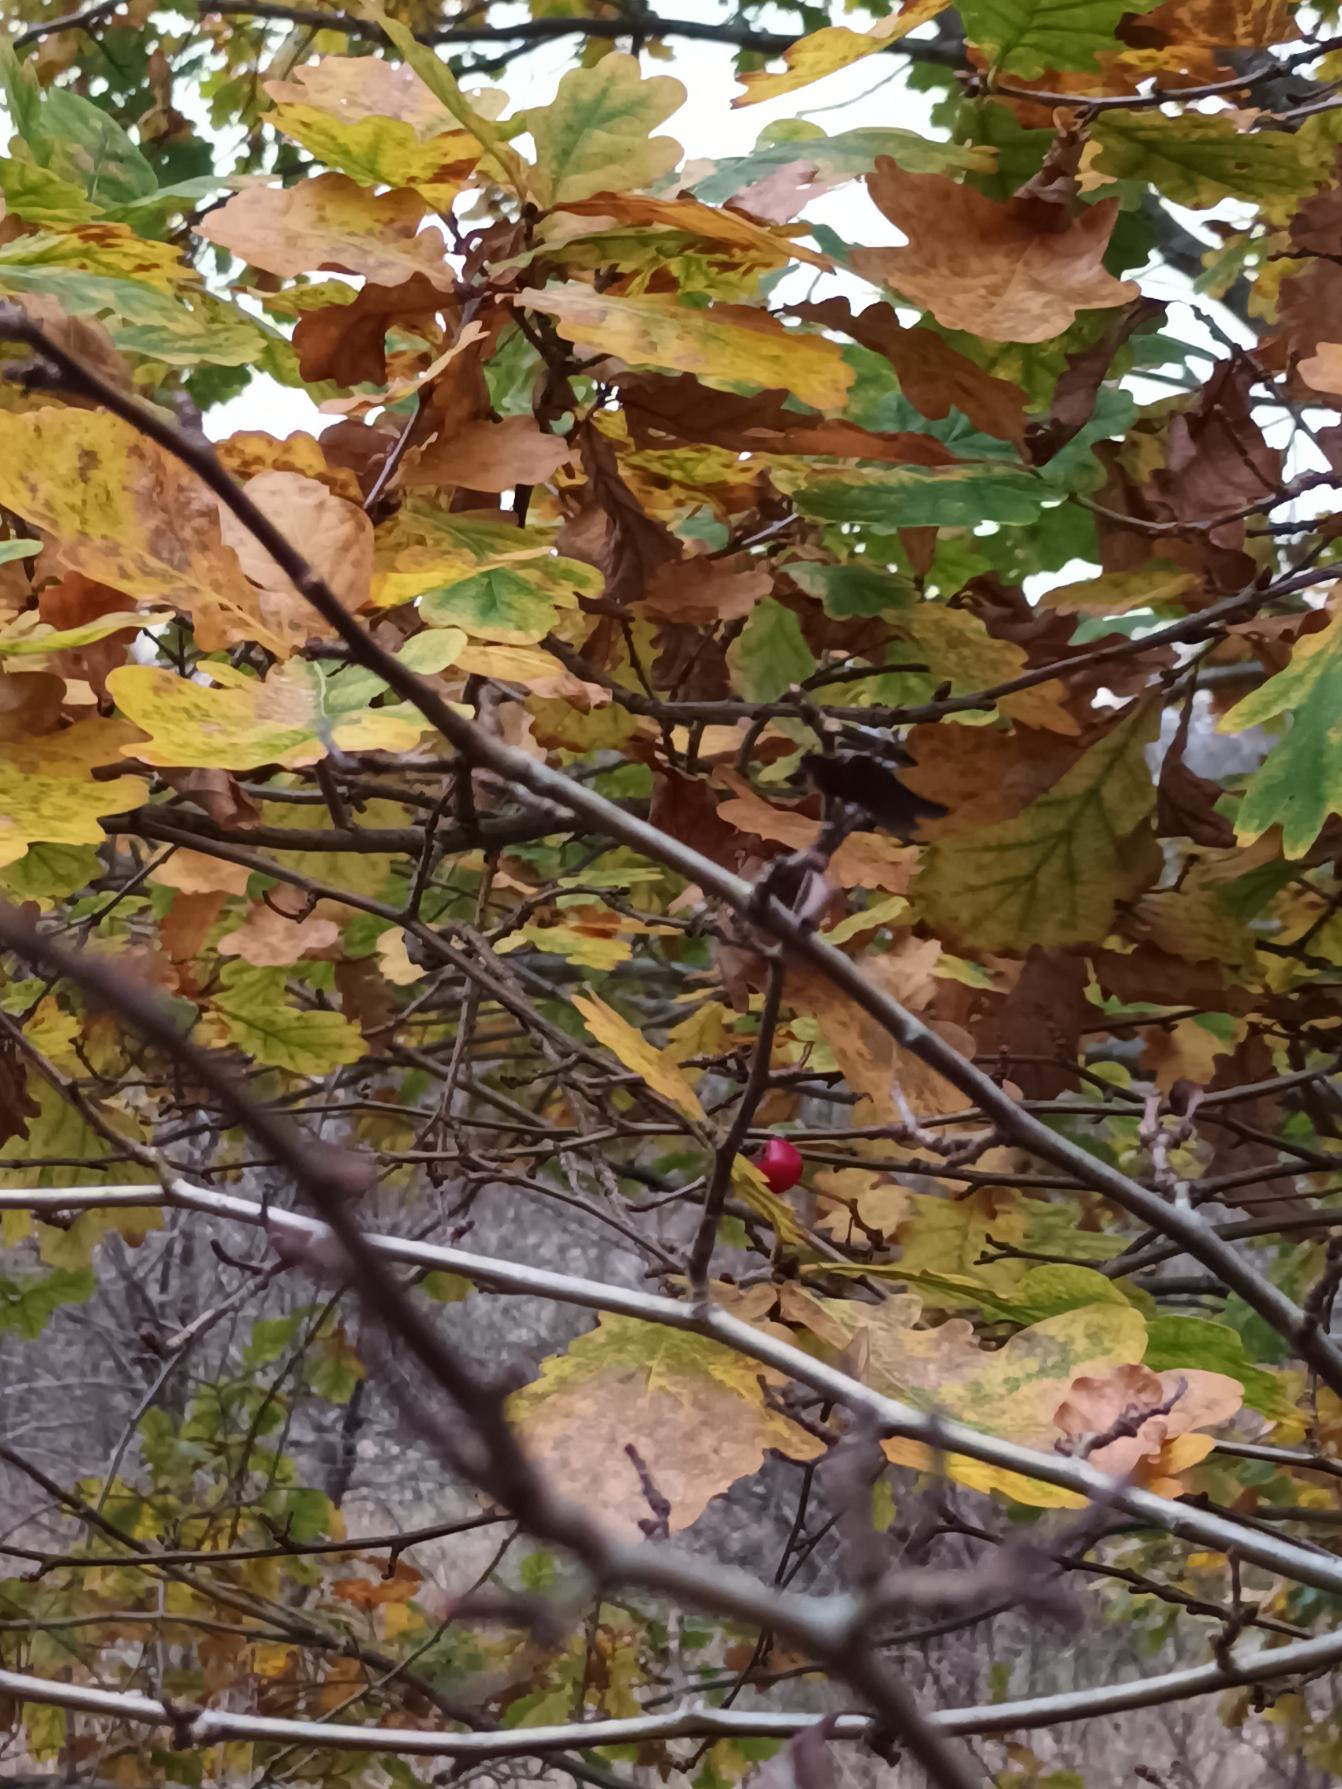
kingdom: Plantae
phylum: Tracheophyta
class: Magnoliopsida
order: Fagales
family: Fagaceae
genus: Quercus
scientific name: Quercus robur
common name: Stilk-eg/almindelig eg
